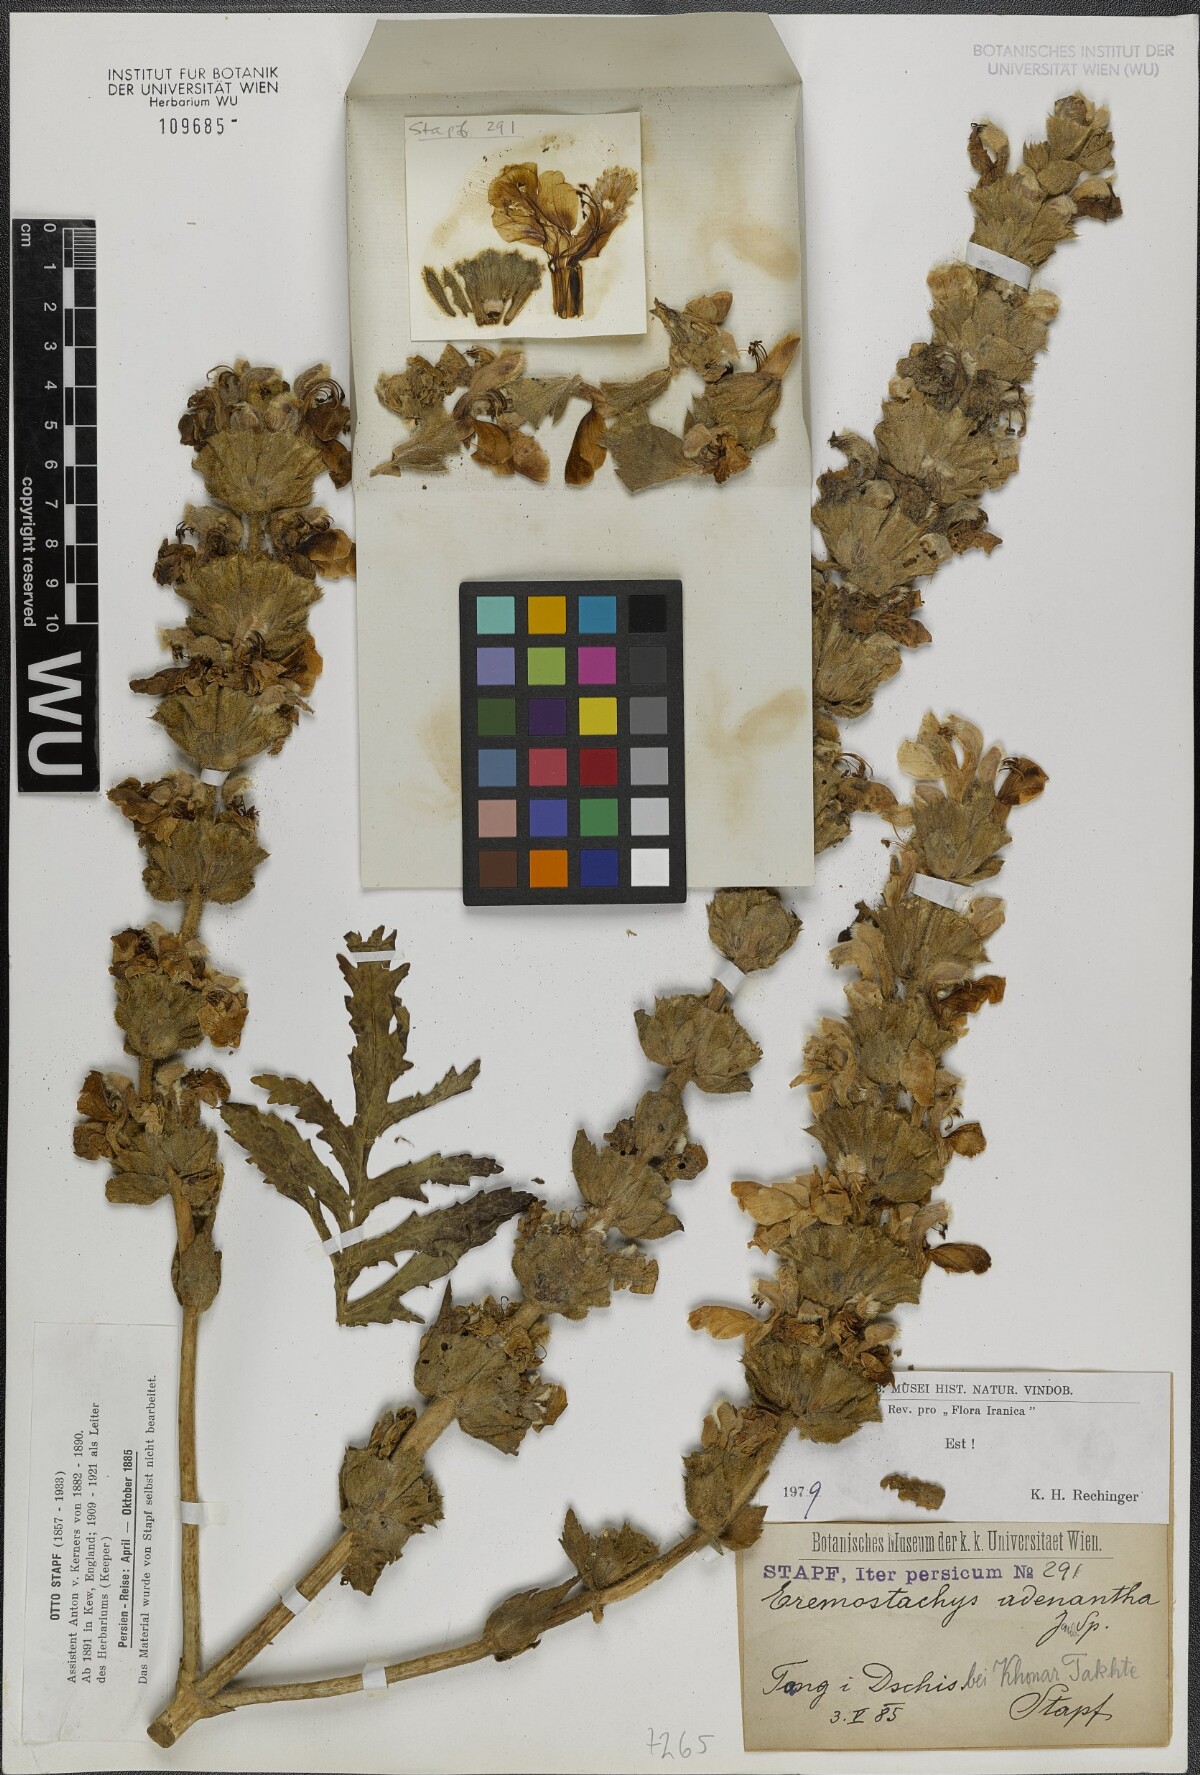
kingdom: Plantae
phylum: Tracheophyta
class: Magnoliopsida
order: Lamiales
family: Lamiaceae
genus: Phlomoides
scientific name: Phlomoides adenantha
